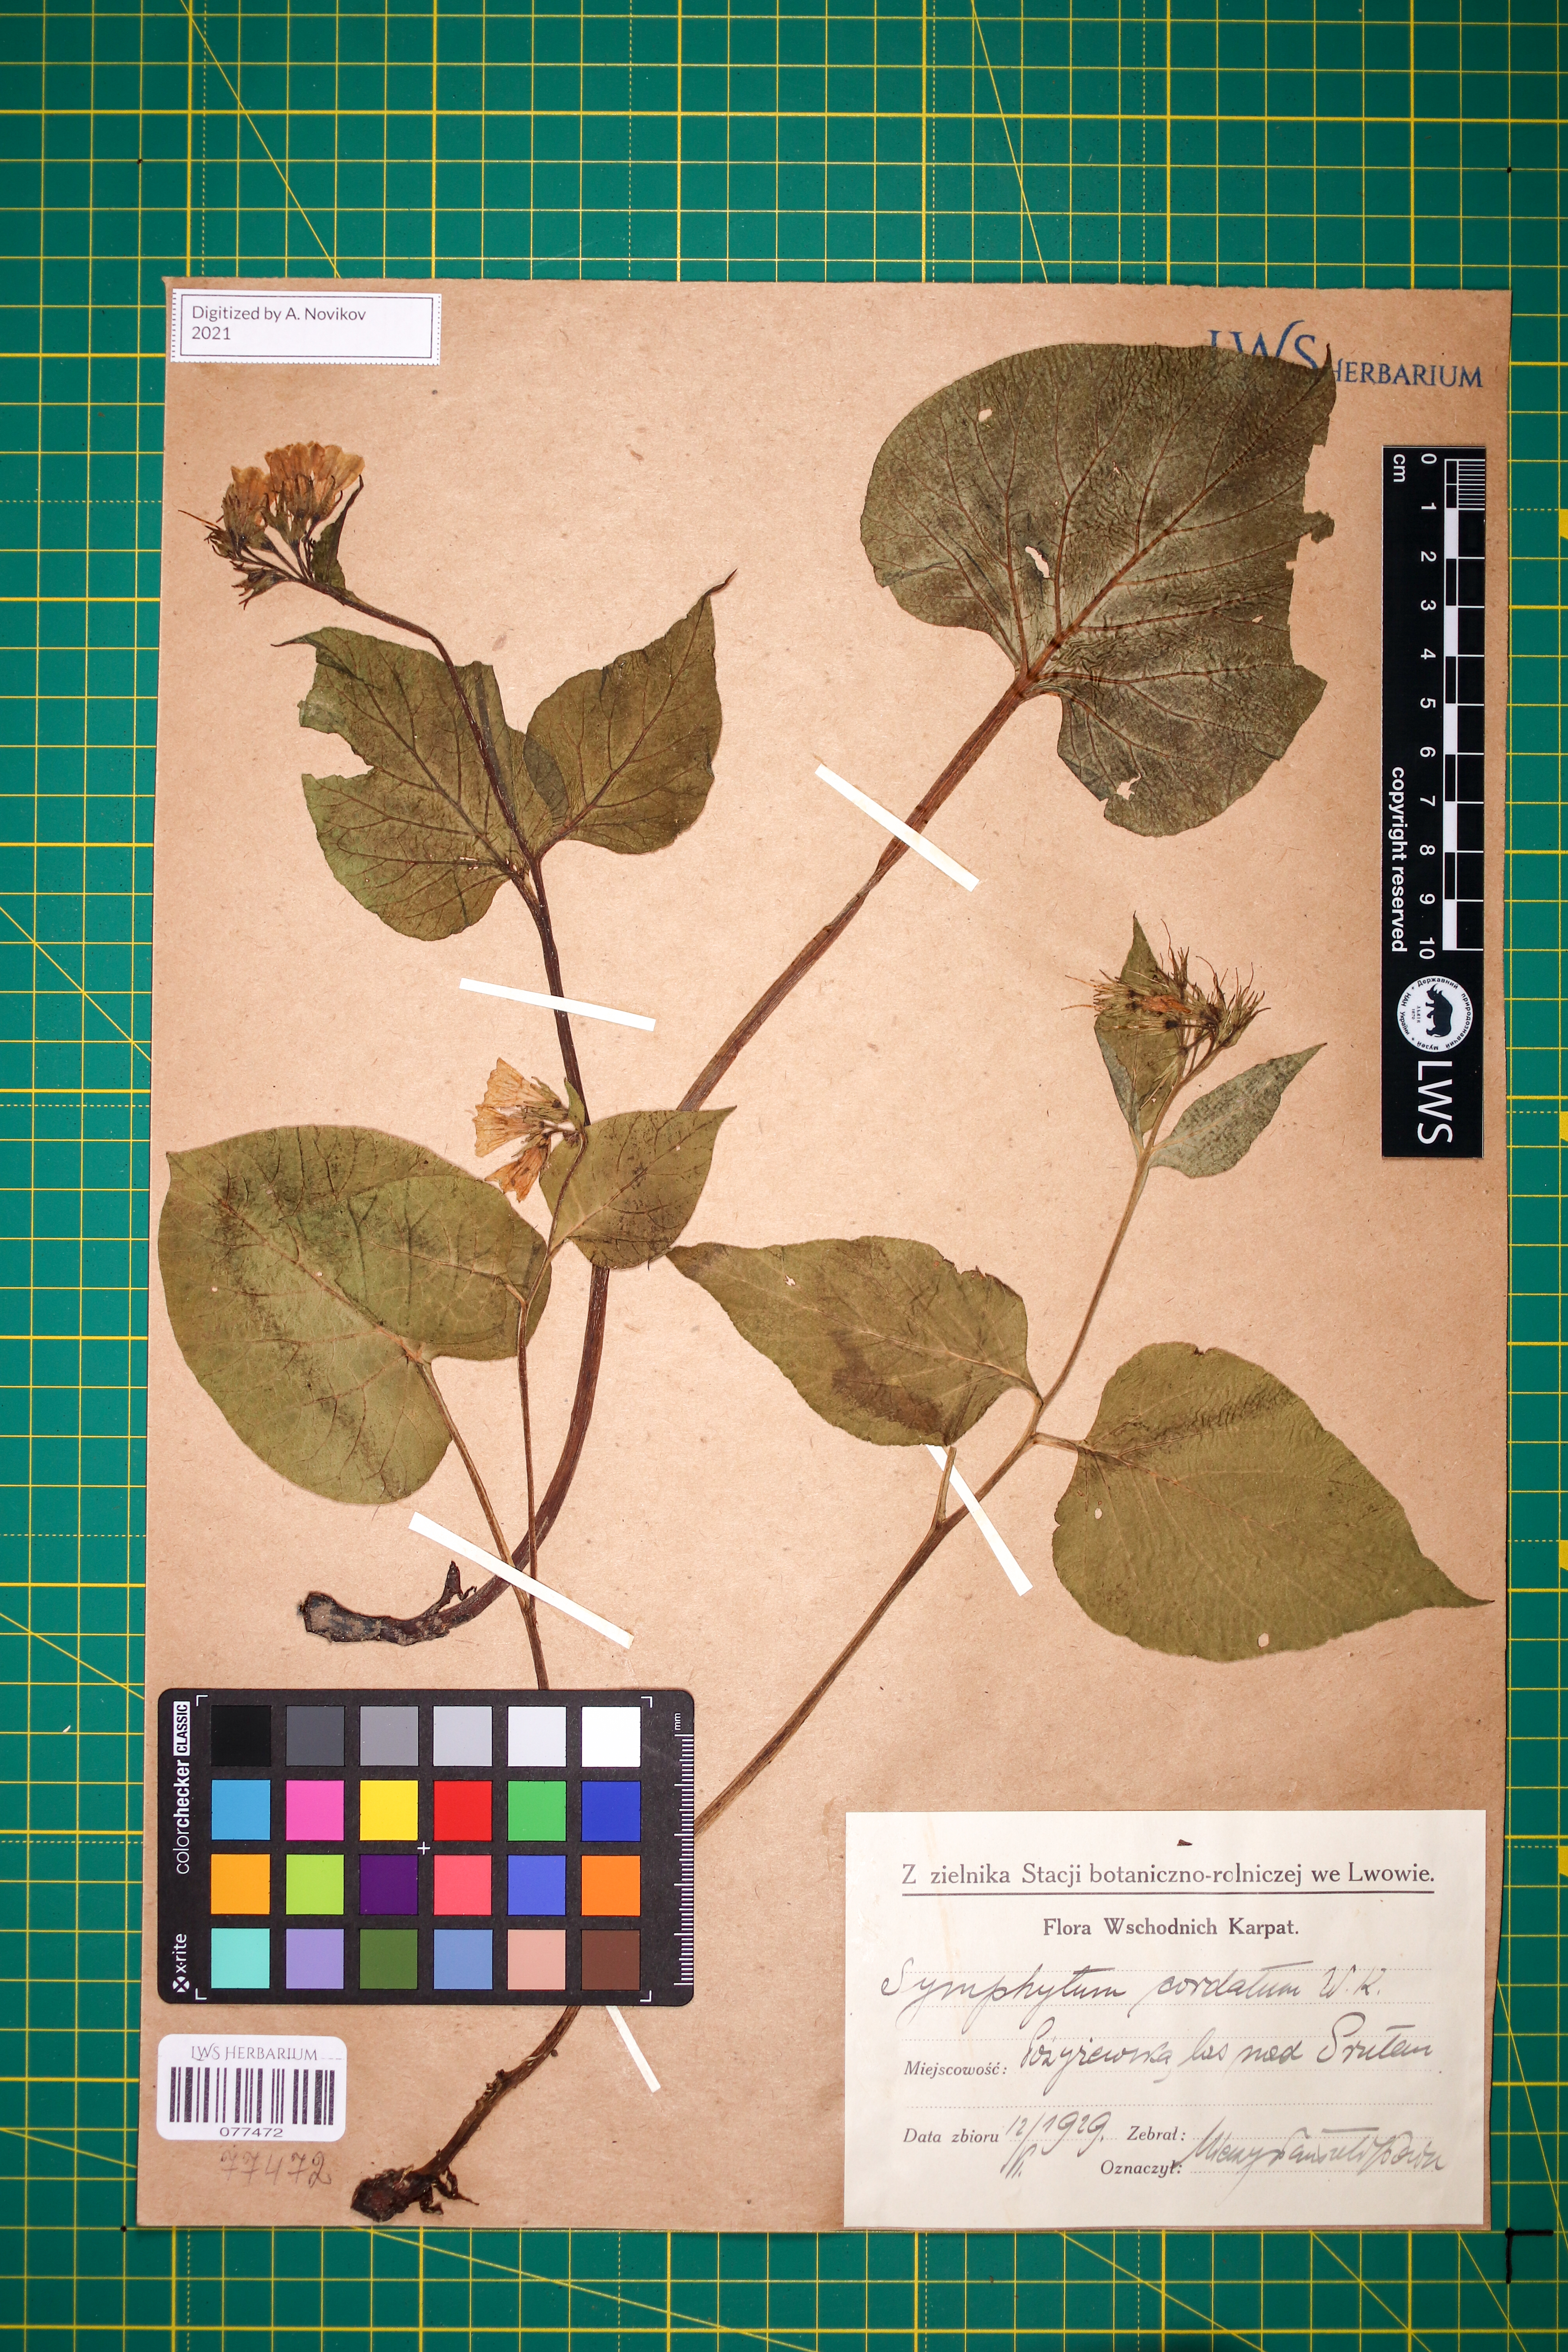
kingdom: Plantae
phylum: Tracheophyta
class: Magnoliopsida
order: Boraginales
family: Boraginaceae
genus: Symphytum
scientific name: Symphytum cordatum
